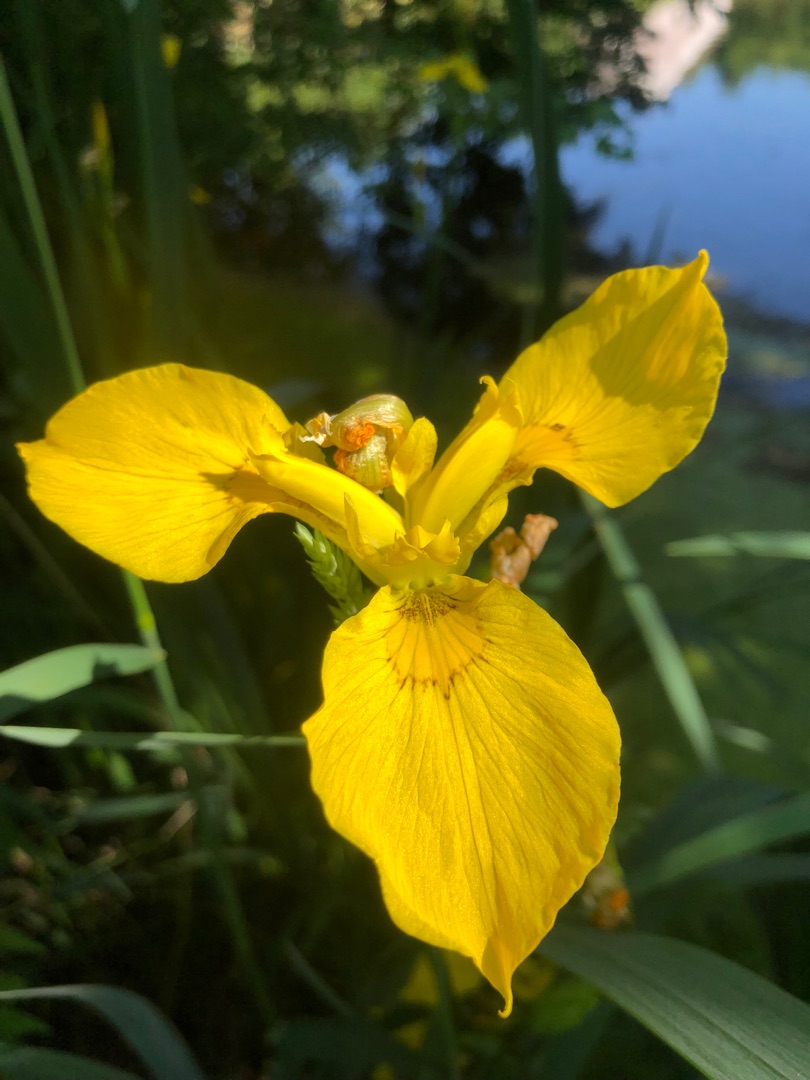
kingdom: Plantae
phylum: Tracheophyta
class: Liliopsida
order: Asparagales
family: Iridaceae
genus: Iris
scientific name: Iris pseudacorus
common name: Gul iris
